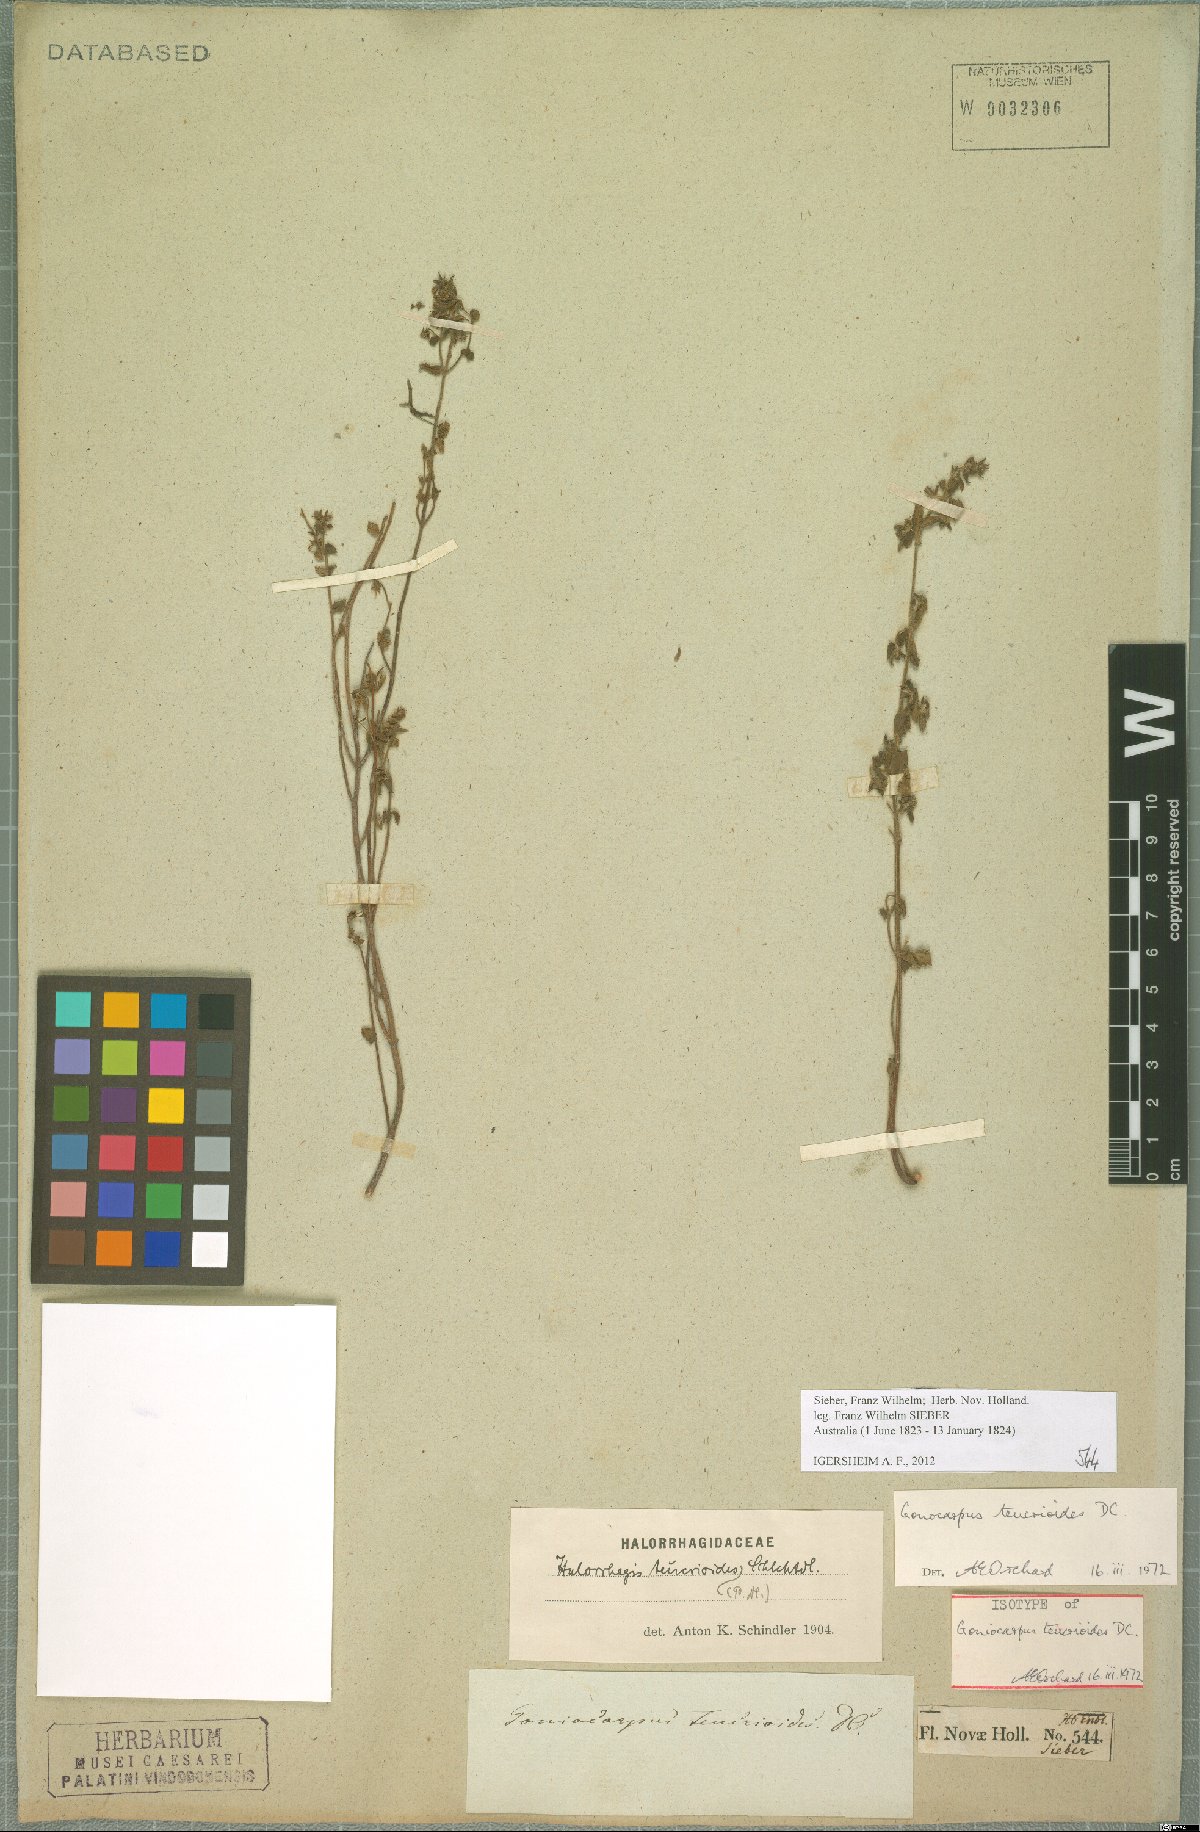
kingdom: Plantae
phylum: Tracheophyta
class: Magnoliopsida
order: Saxifragales
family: Haloragaceae
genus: Gonocarpus
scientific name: Gonocarpus teucrioides
